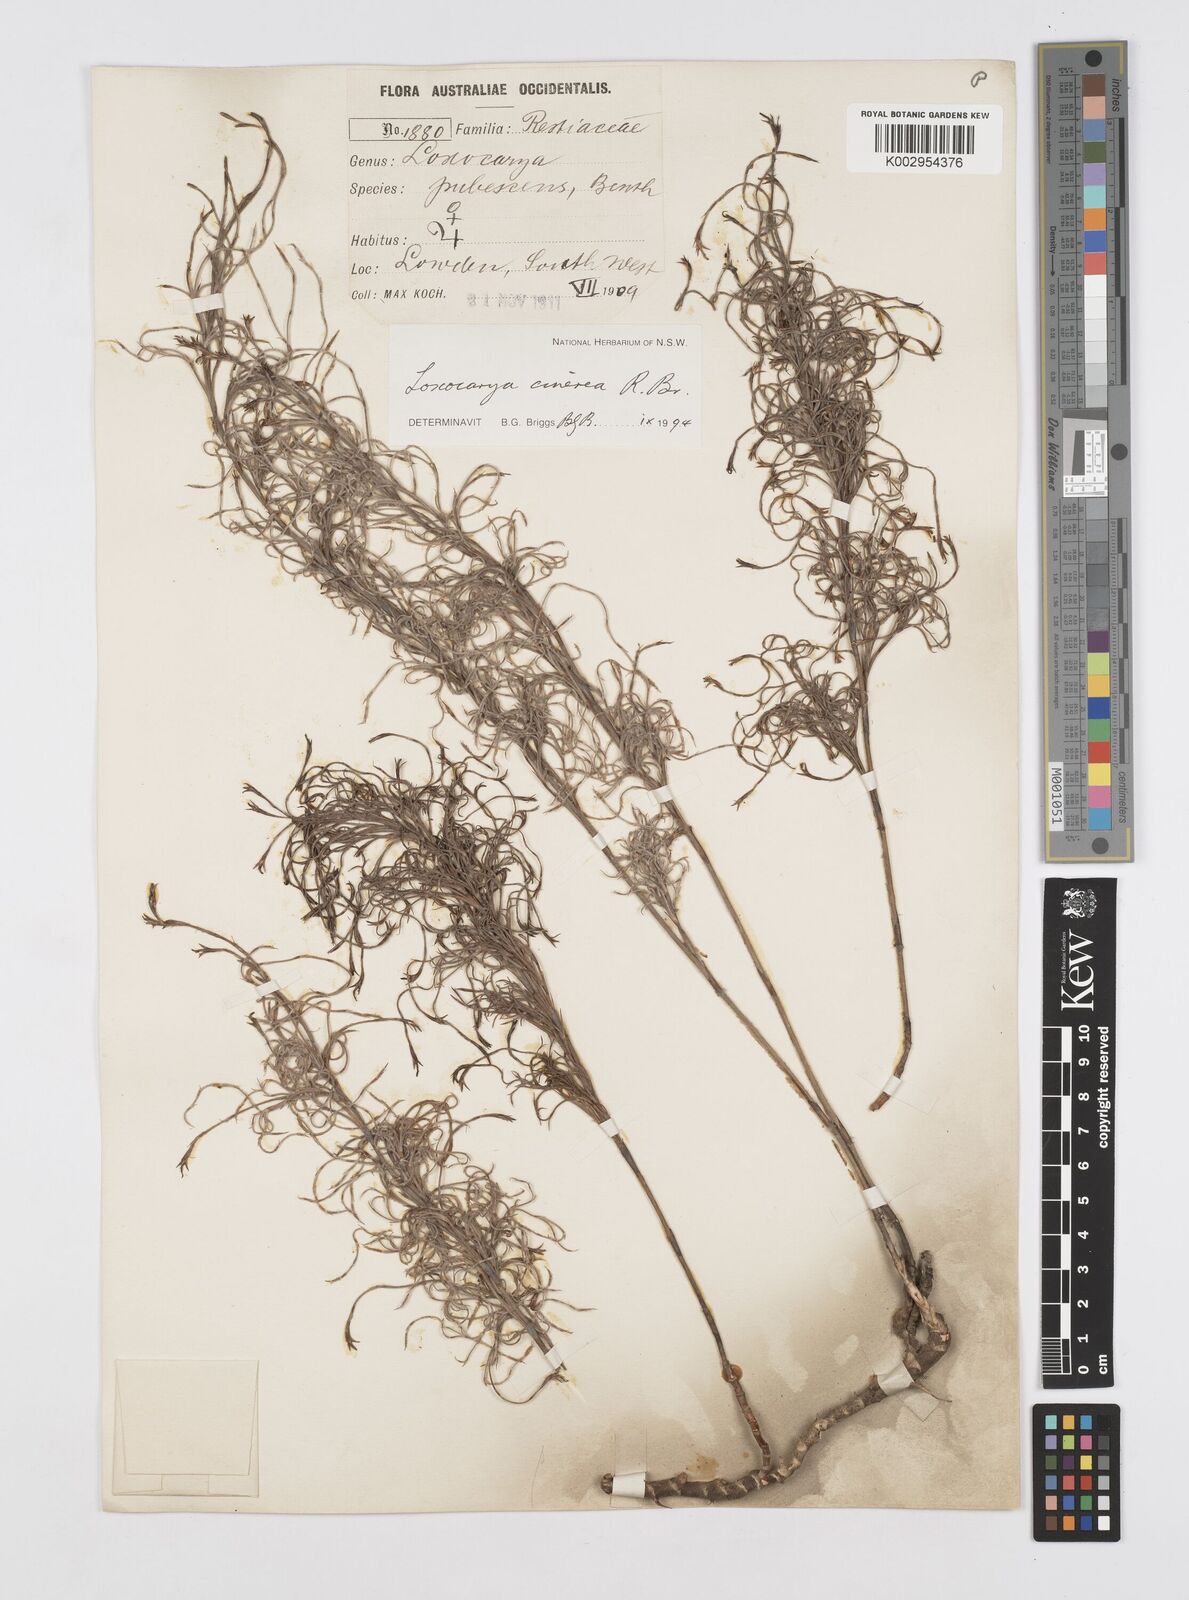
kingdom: Plantae
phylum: Tracheophyta
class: Liliopsida
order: Poales
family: Restionaceae
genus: Loxocarya
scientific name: Loxocarya cinerea
